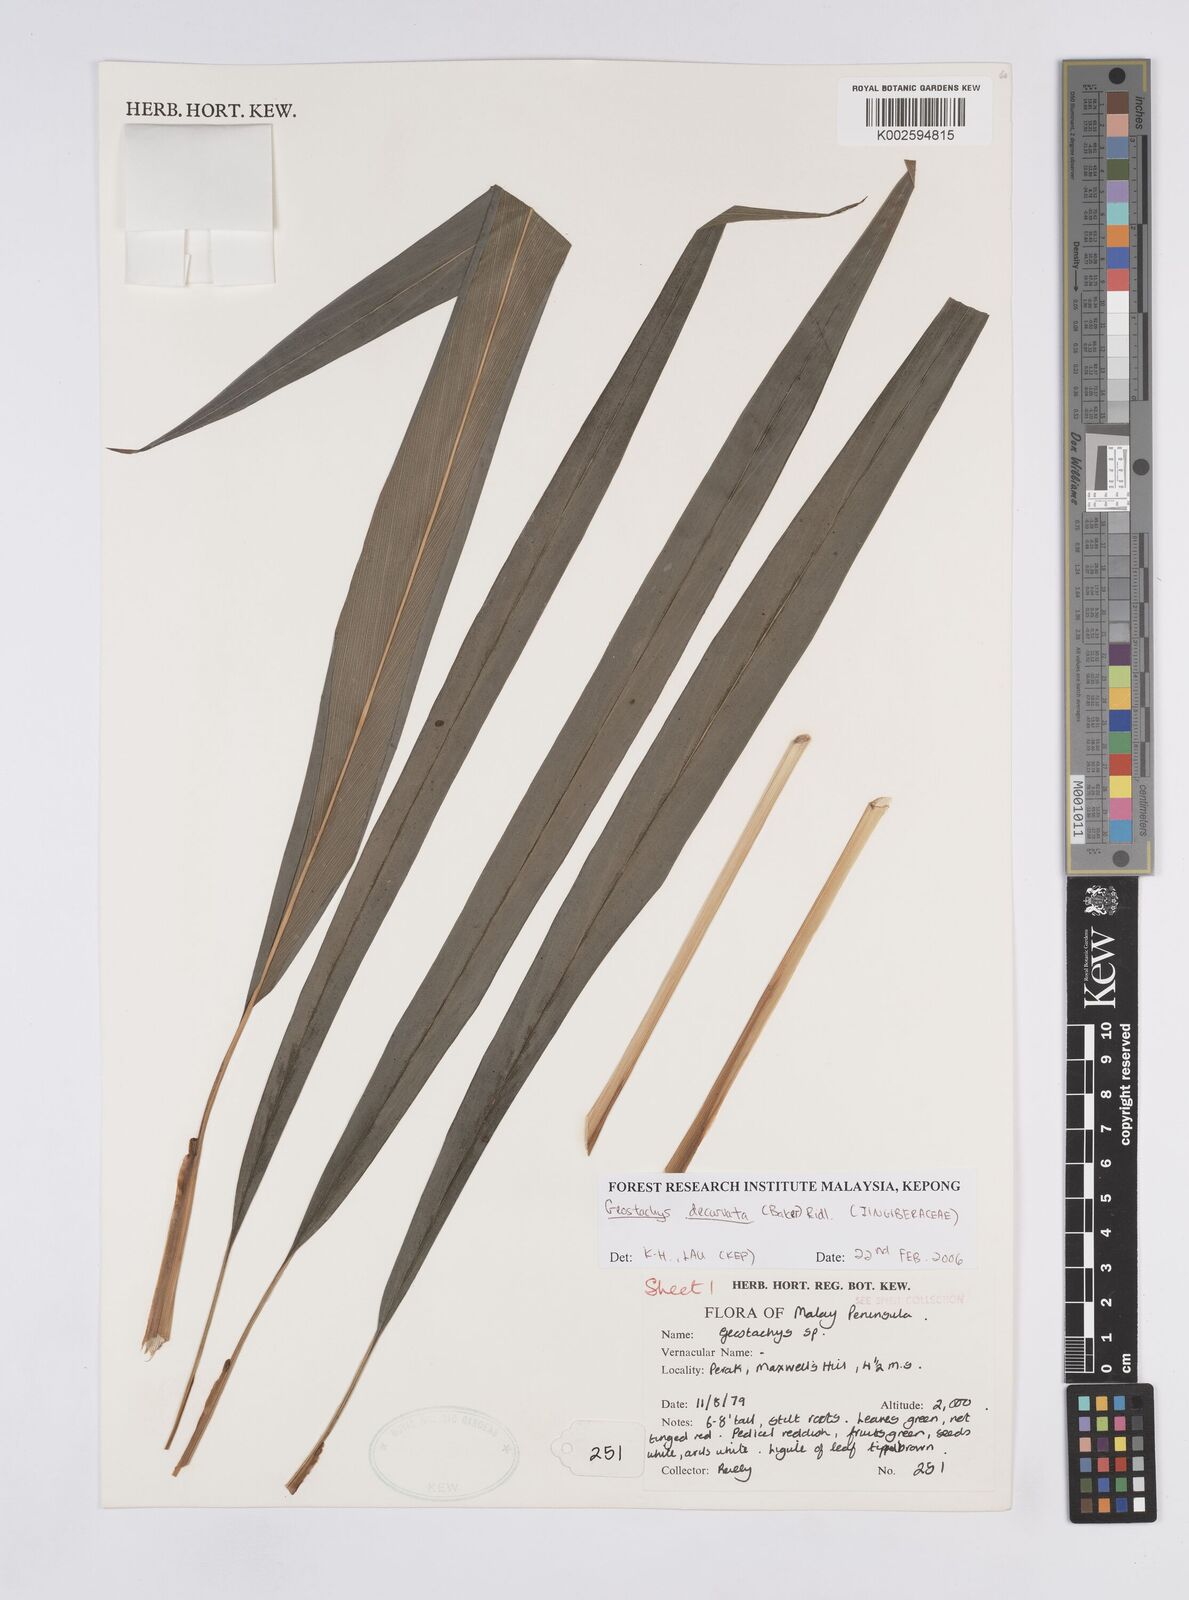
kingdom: Plantae
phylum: Tracheophyta
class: Liliopsida
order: Zingiberales
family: Zingiberaceae
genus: Geostachys
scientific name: Geostachys decurvata
